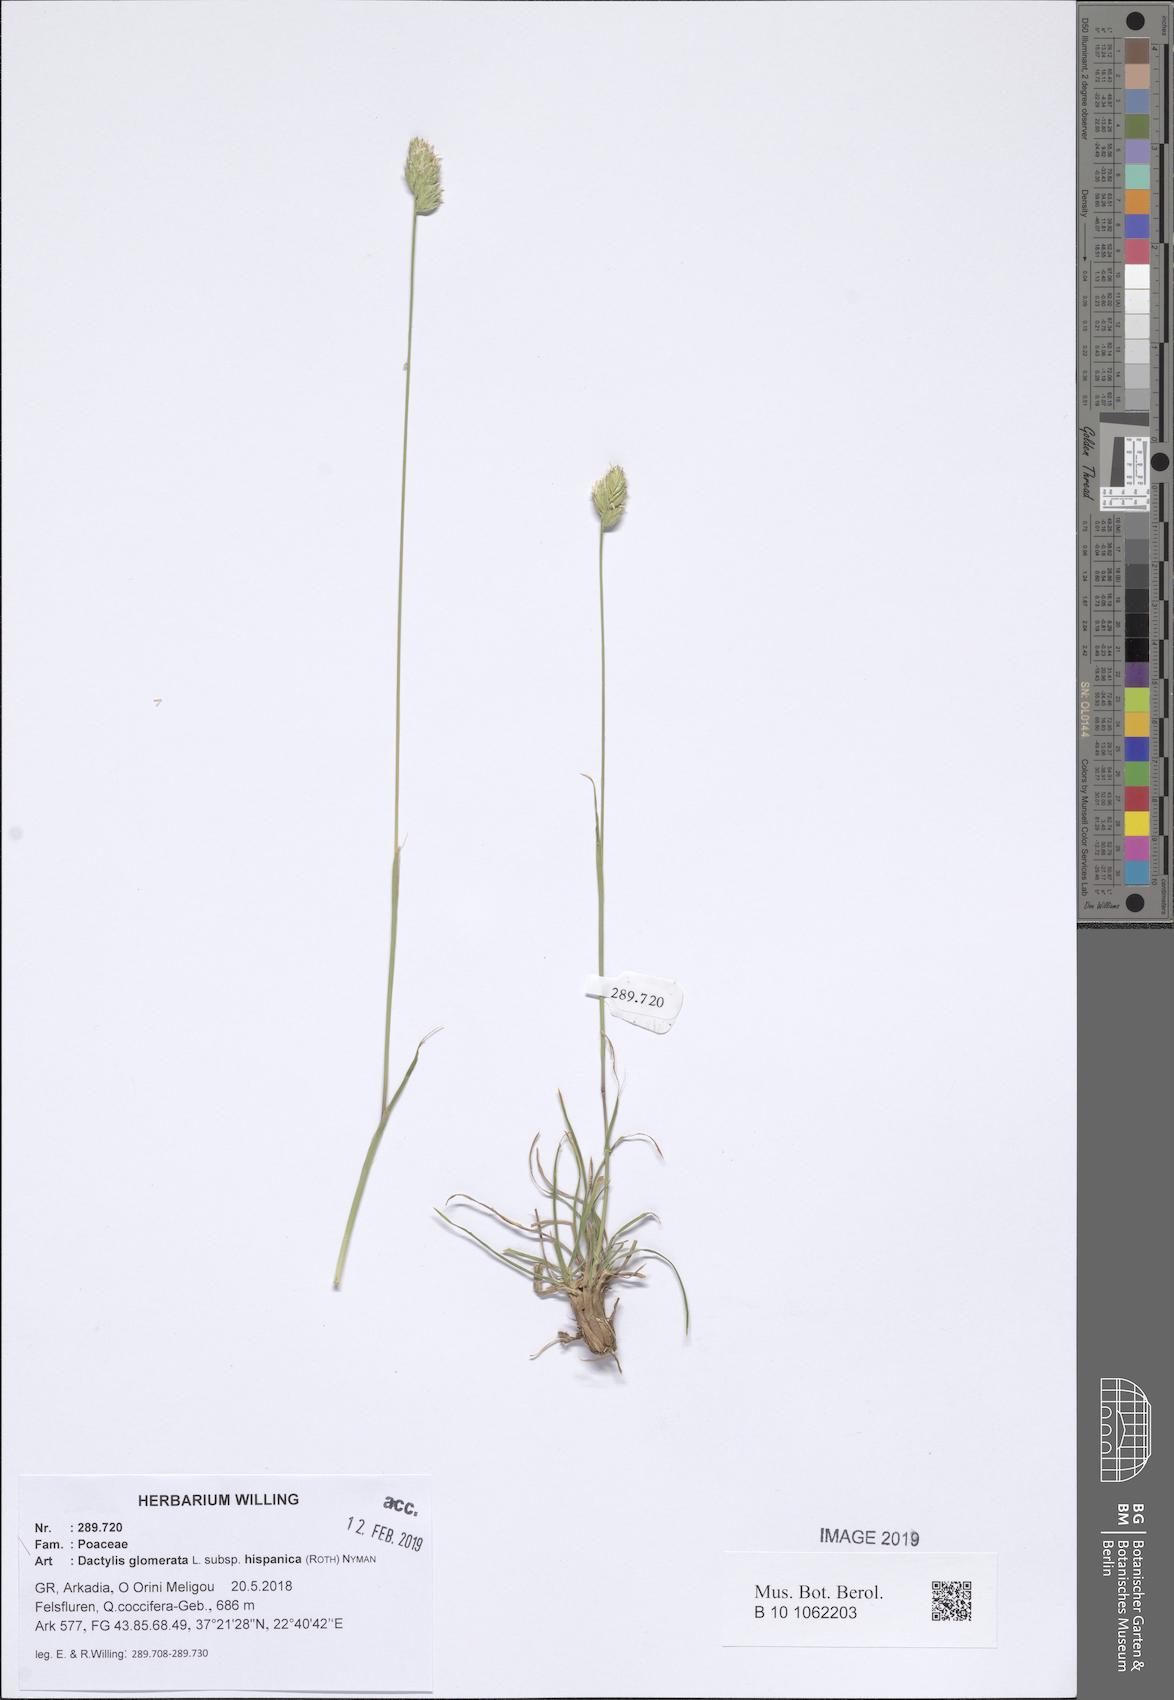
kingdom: Plantae
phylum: Tracheophyta
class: Liliopsida
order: Poales
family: Poaceae
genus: Dactylis
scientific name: Dactylis glomerata
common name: Orchardgrass
